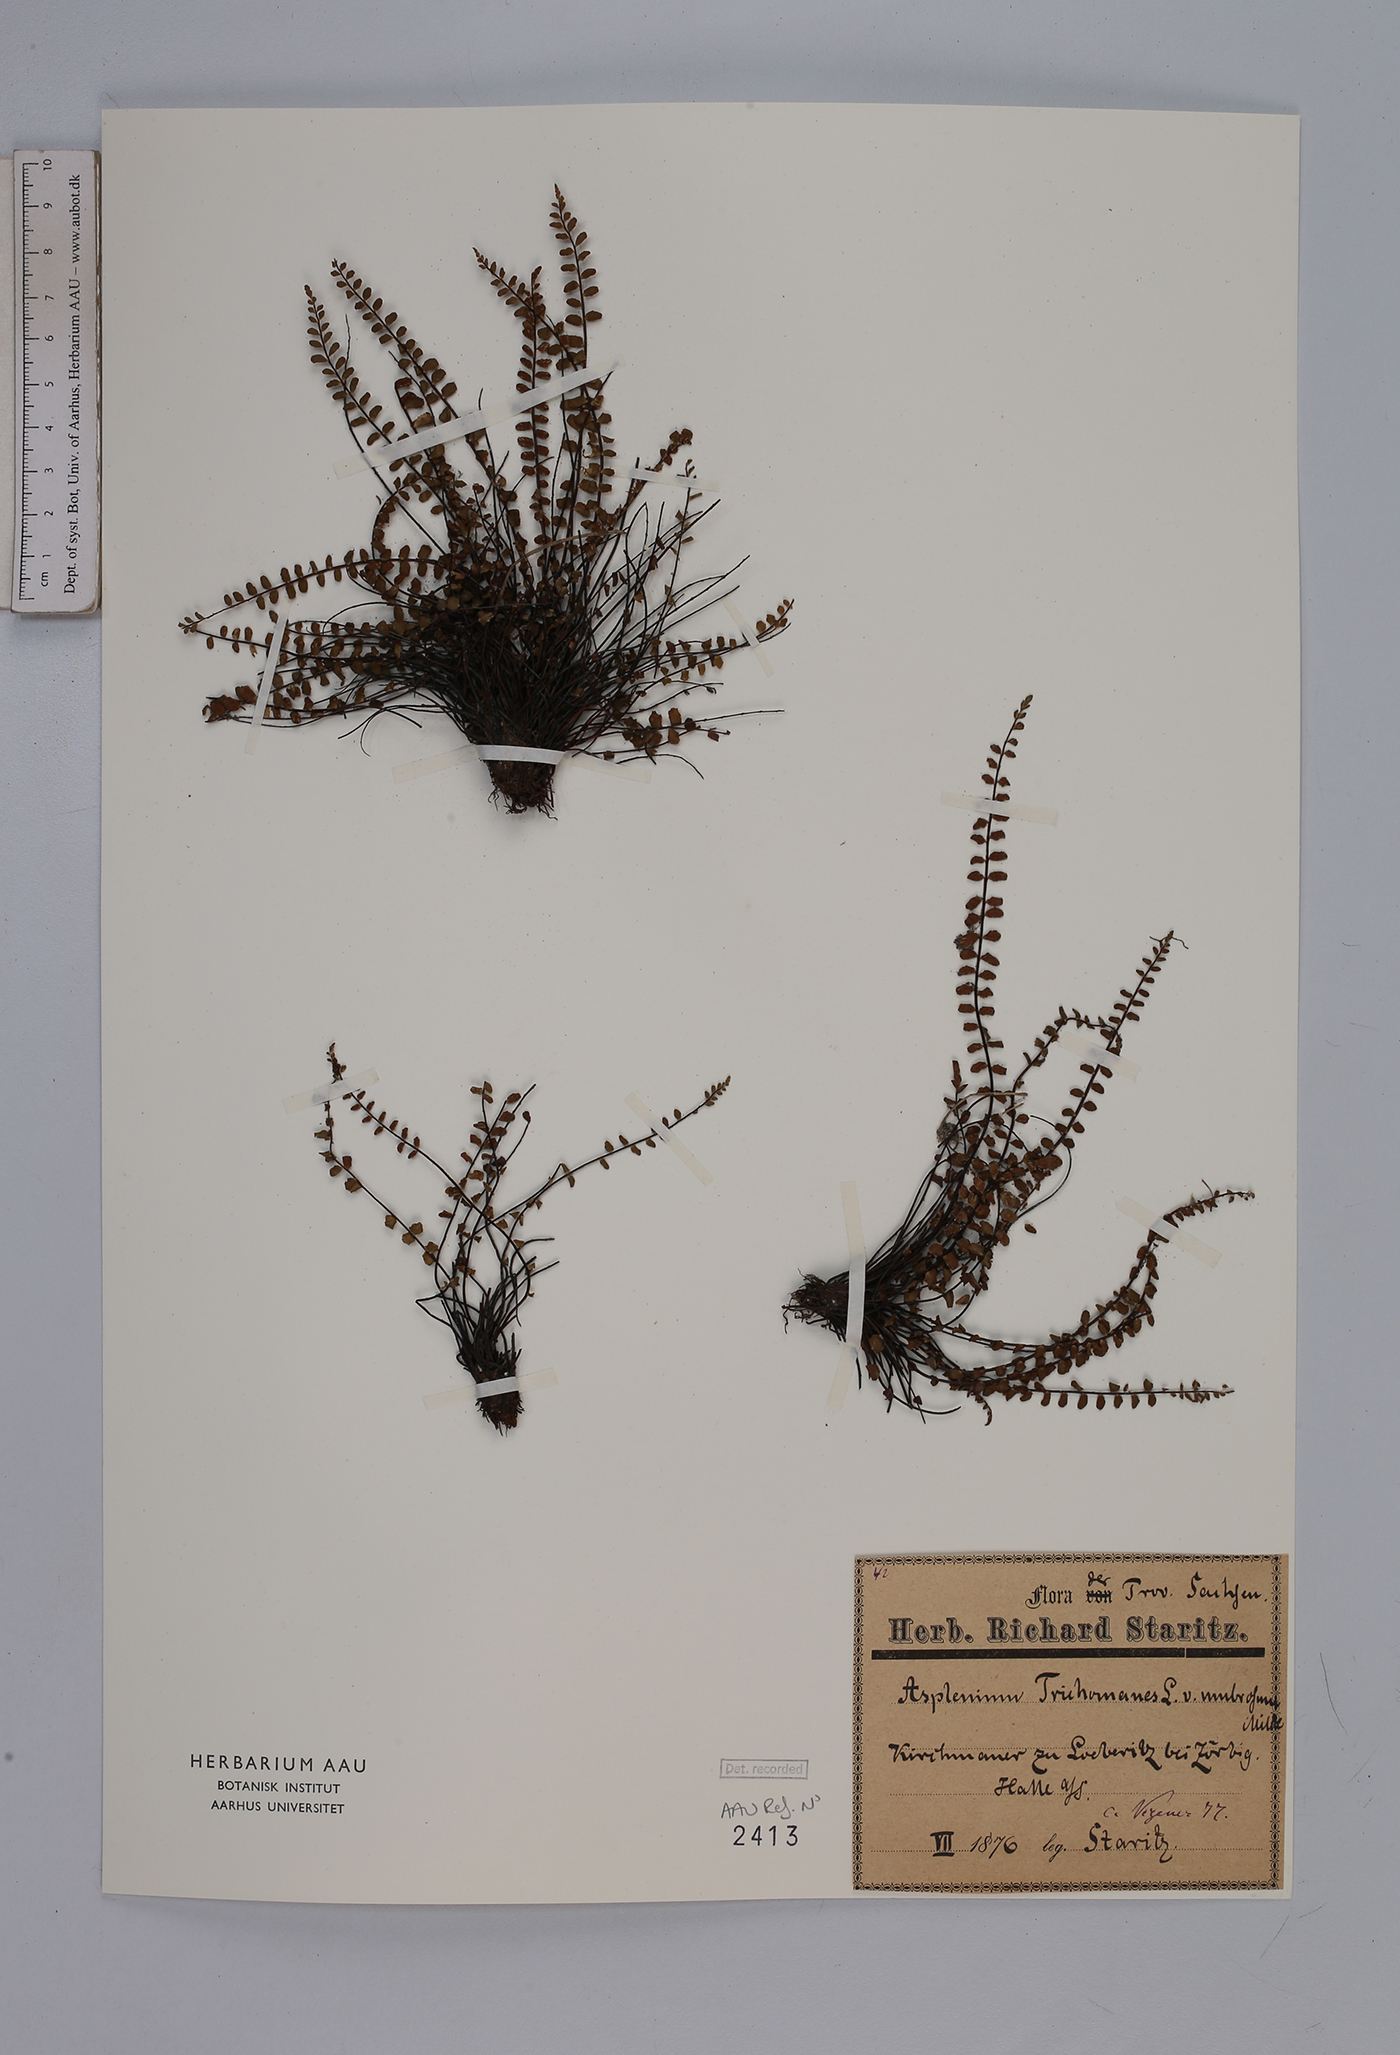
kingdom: Plantae
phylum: Tracheophyta
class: Polypodiopsida
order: Polypodiales
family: Aspleniaceae
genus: Asplenium
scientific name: Asplenium trichomanes
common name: Maidenhair spleenwort
